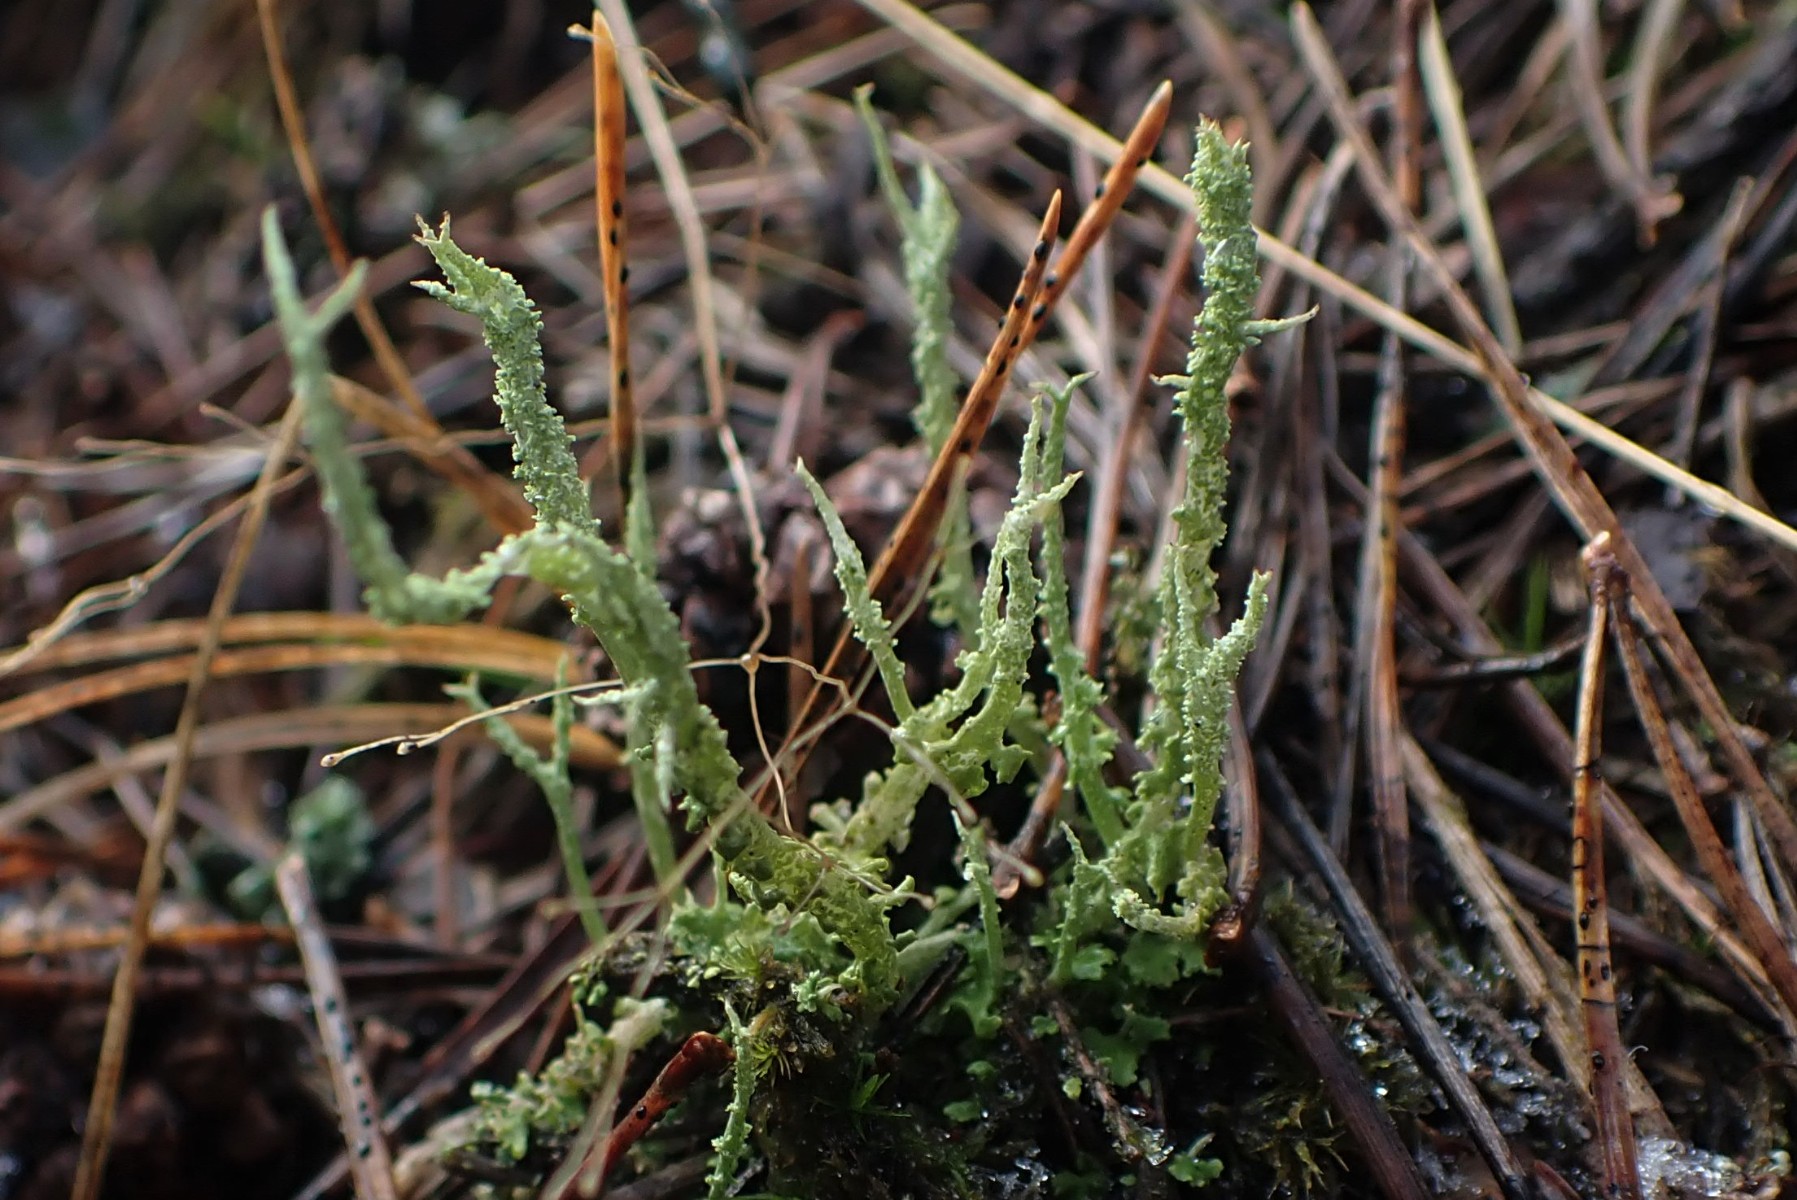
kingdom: Fungi
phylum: Ascomycota
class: Lecanoromycetes
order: Lecanorales
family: Cladoniaceae
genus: Cladonia
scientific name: Cladonia scabriuscula
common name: ru bægerlav
